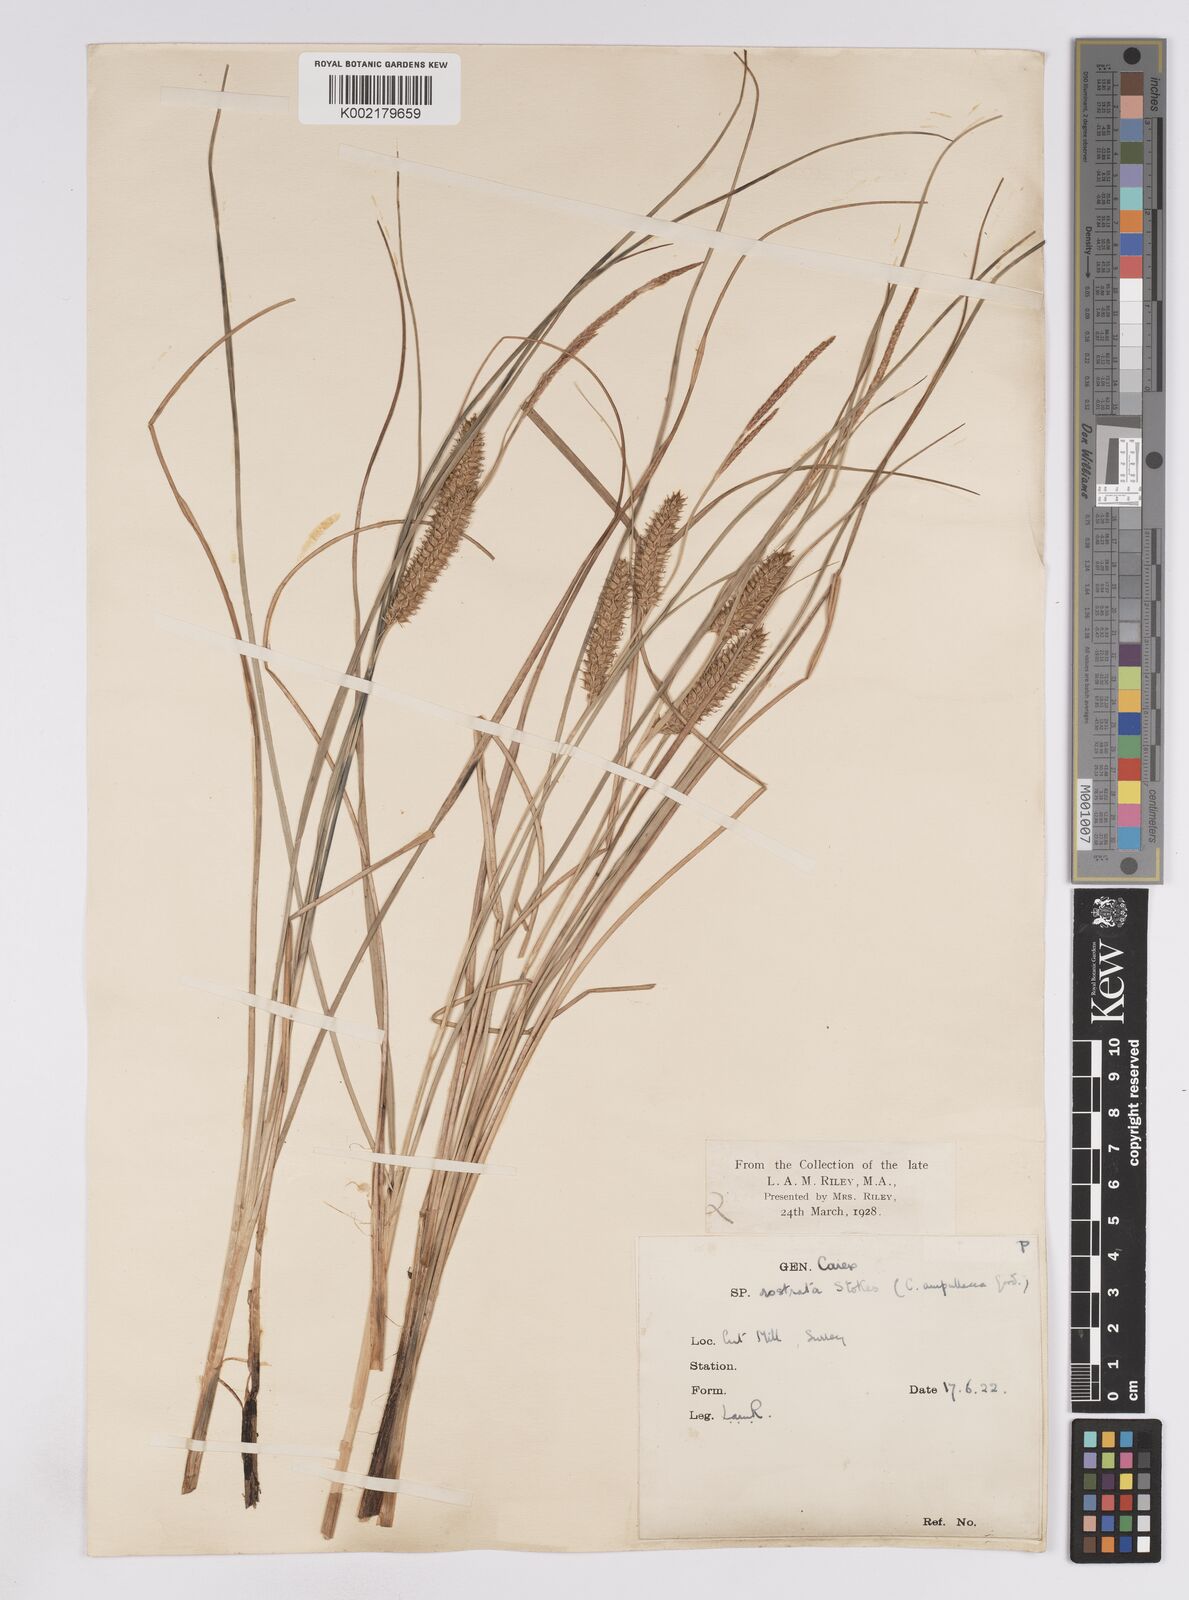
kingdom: Plantae
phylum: Tracheophyta
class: Liliopsida
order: Poales
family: Cyperaceae
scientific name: Cyperaceae
